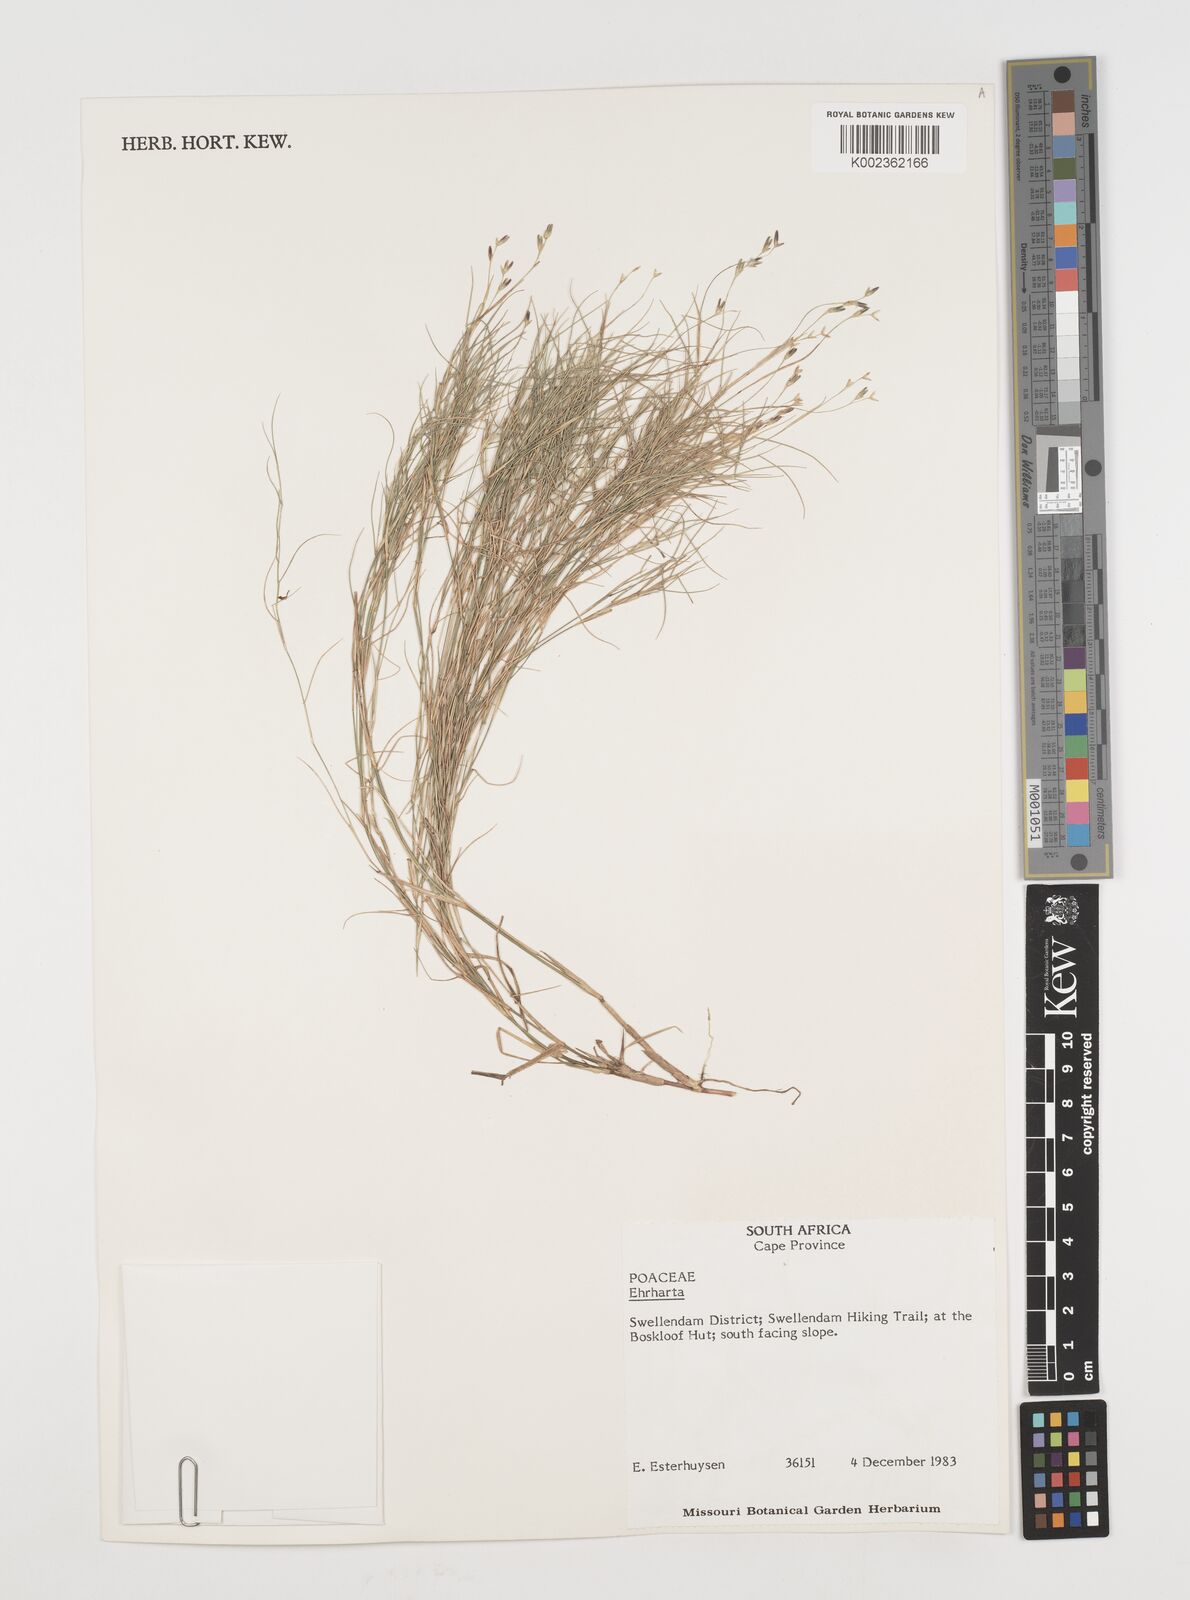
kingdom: Plantae
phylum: Tracheophyta
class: Liliopsida
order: Poales
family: Poaceae
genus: Ehrharta
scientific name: Ehrharta
